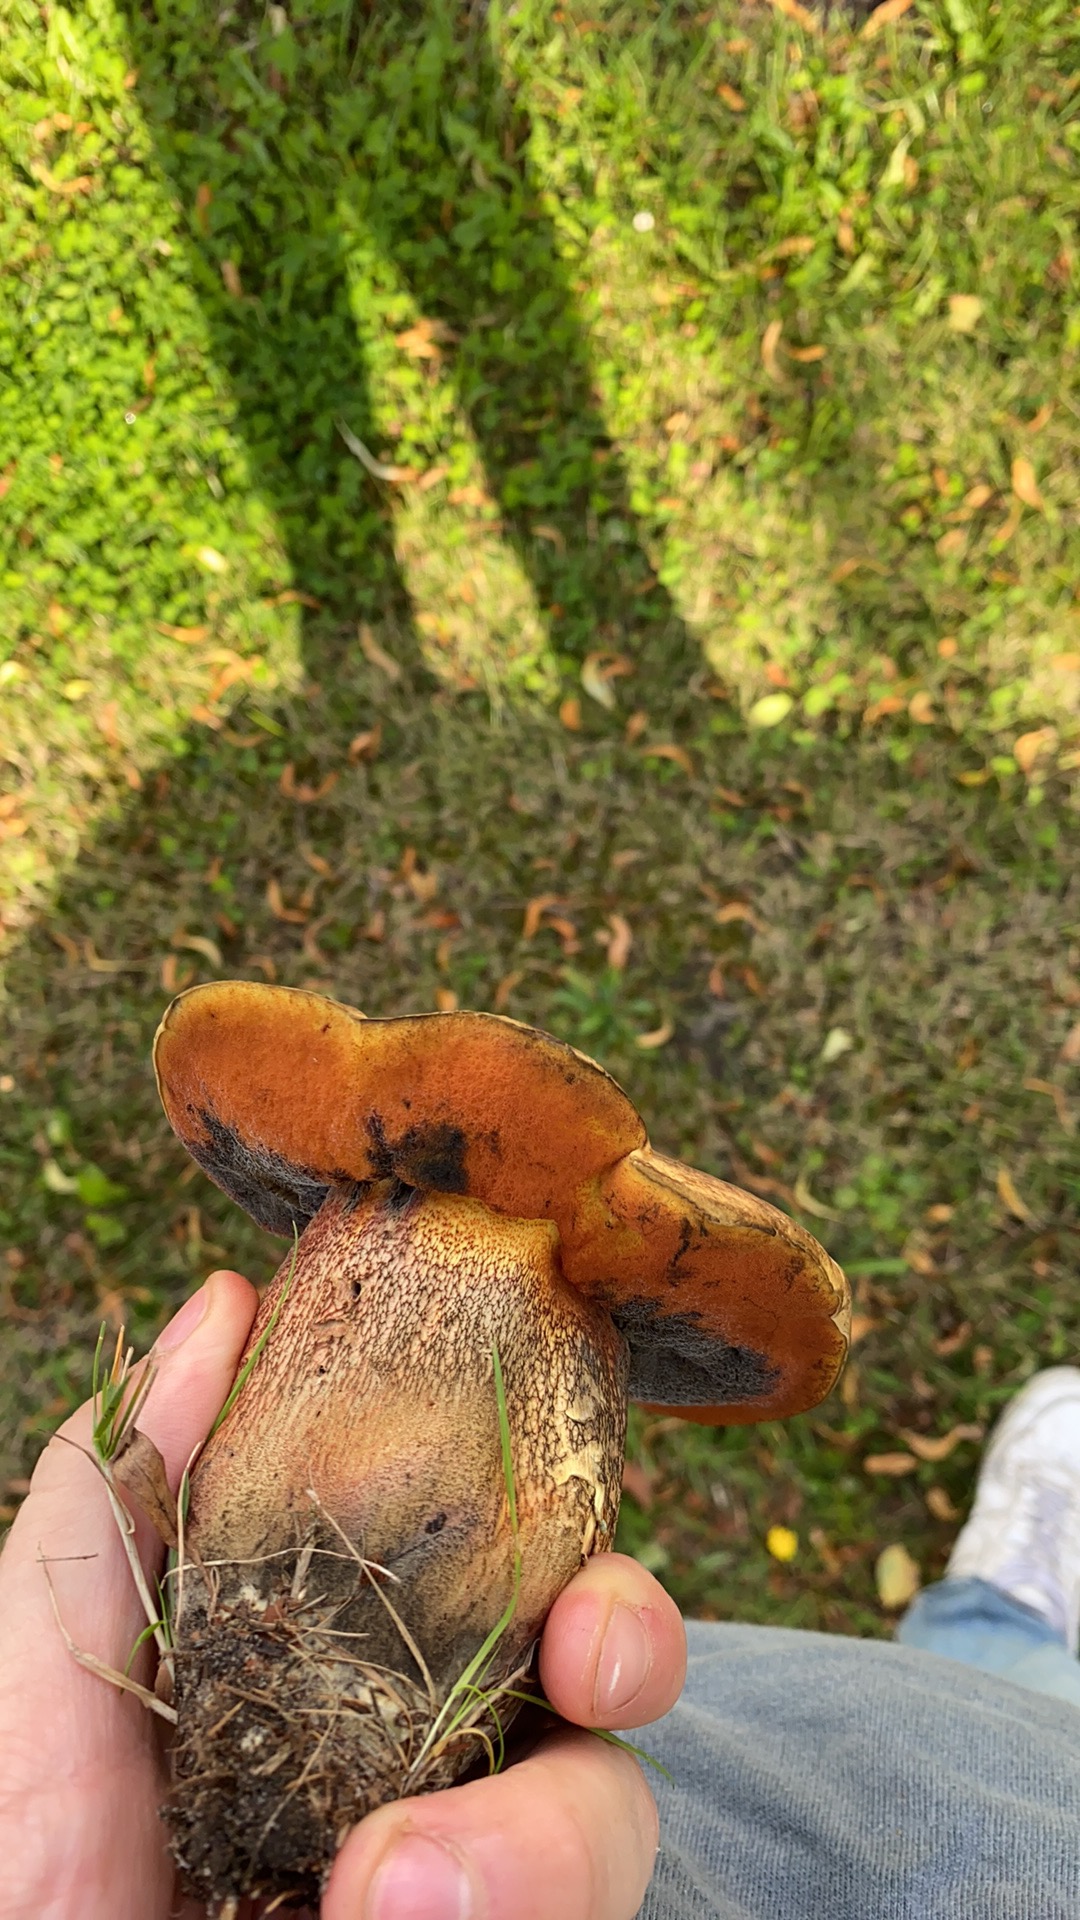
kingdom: Fungi
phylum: Basidiomycota
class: Agaricomycetes
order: Boletales
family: Boletaceae
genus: Suillellus
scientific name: Suillellus luridus
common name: netstokket indigorørhat
